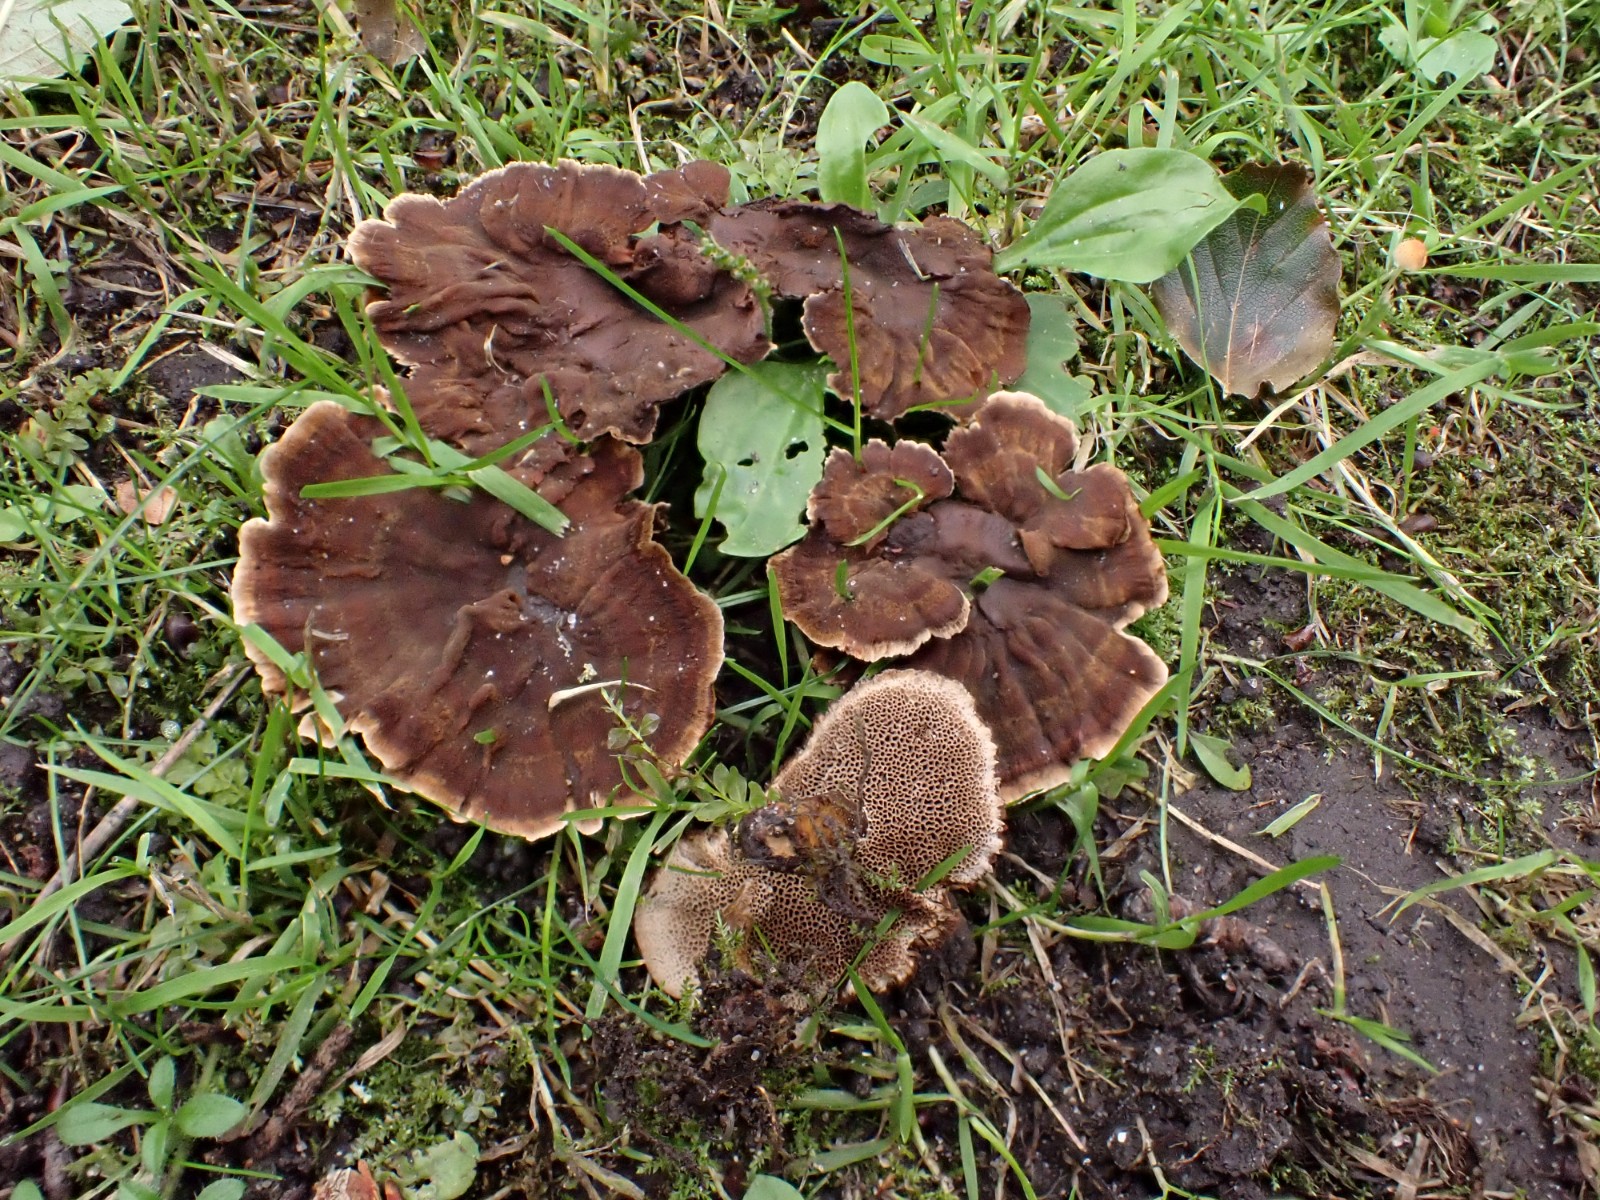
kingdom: Fungi
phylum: Basidiomycota
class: Agaricomycetes
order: Hymenochaetales
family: Hymenochaetaceae
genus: Coltricia
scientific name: Coltricia confluens
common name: park-sandporesvamp
